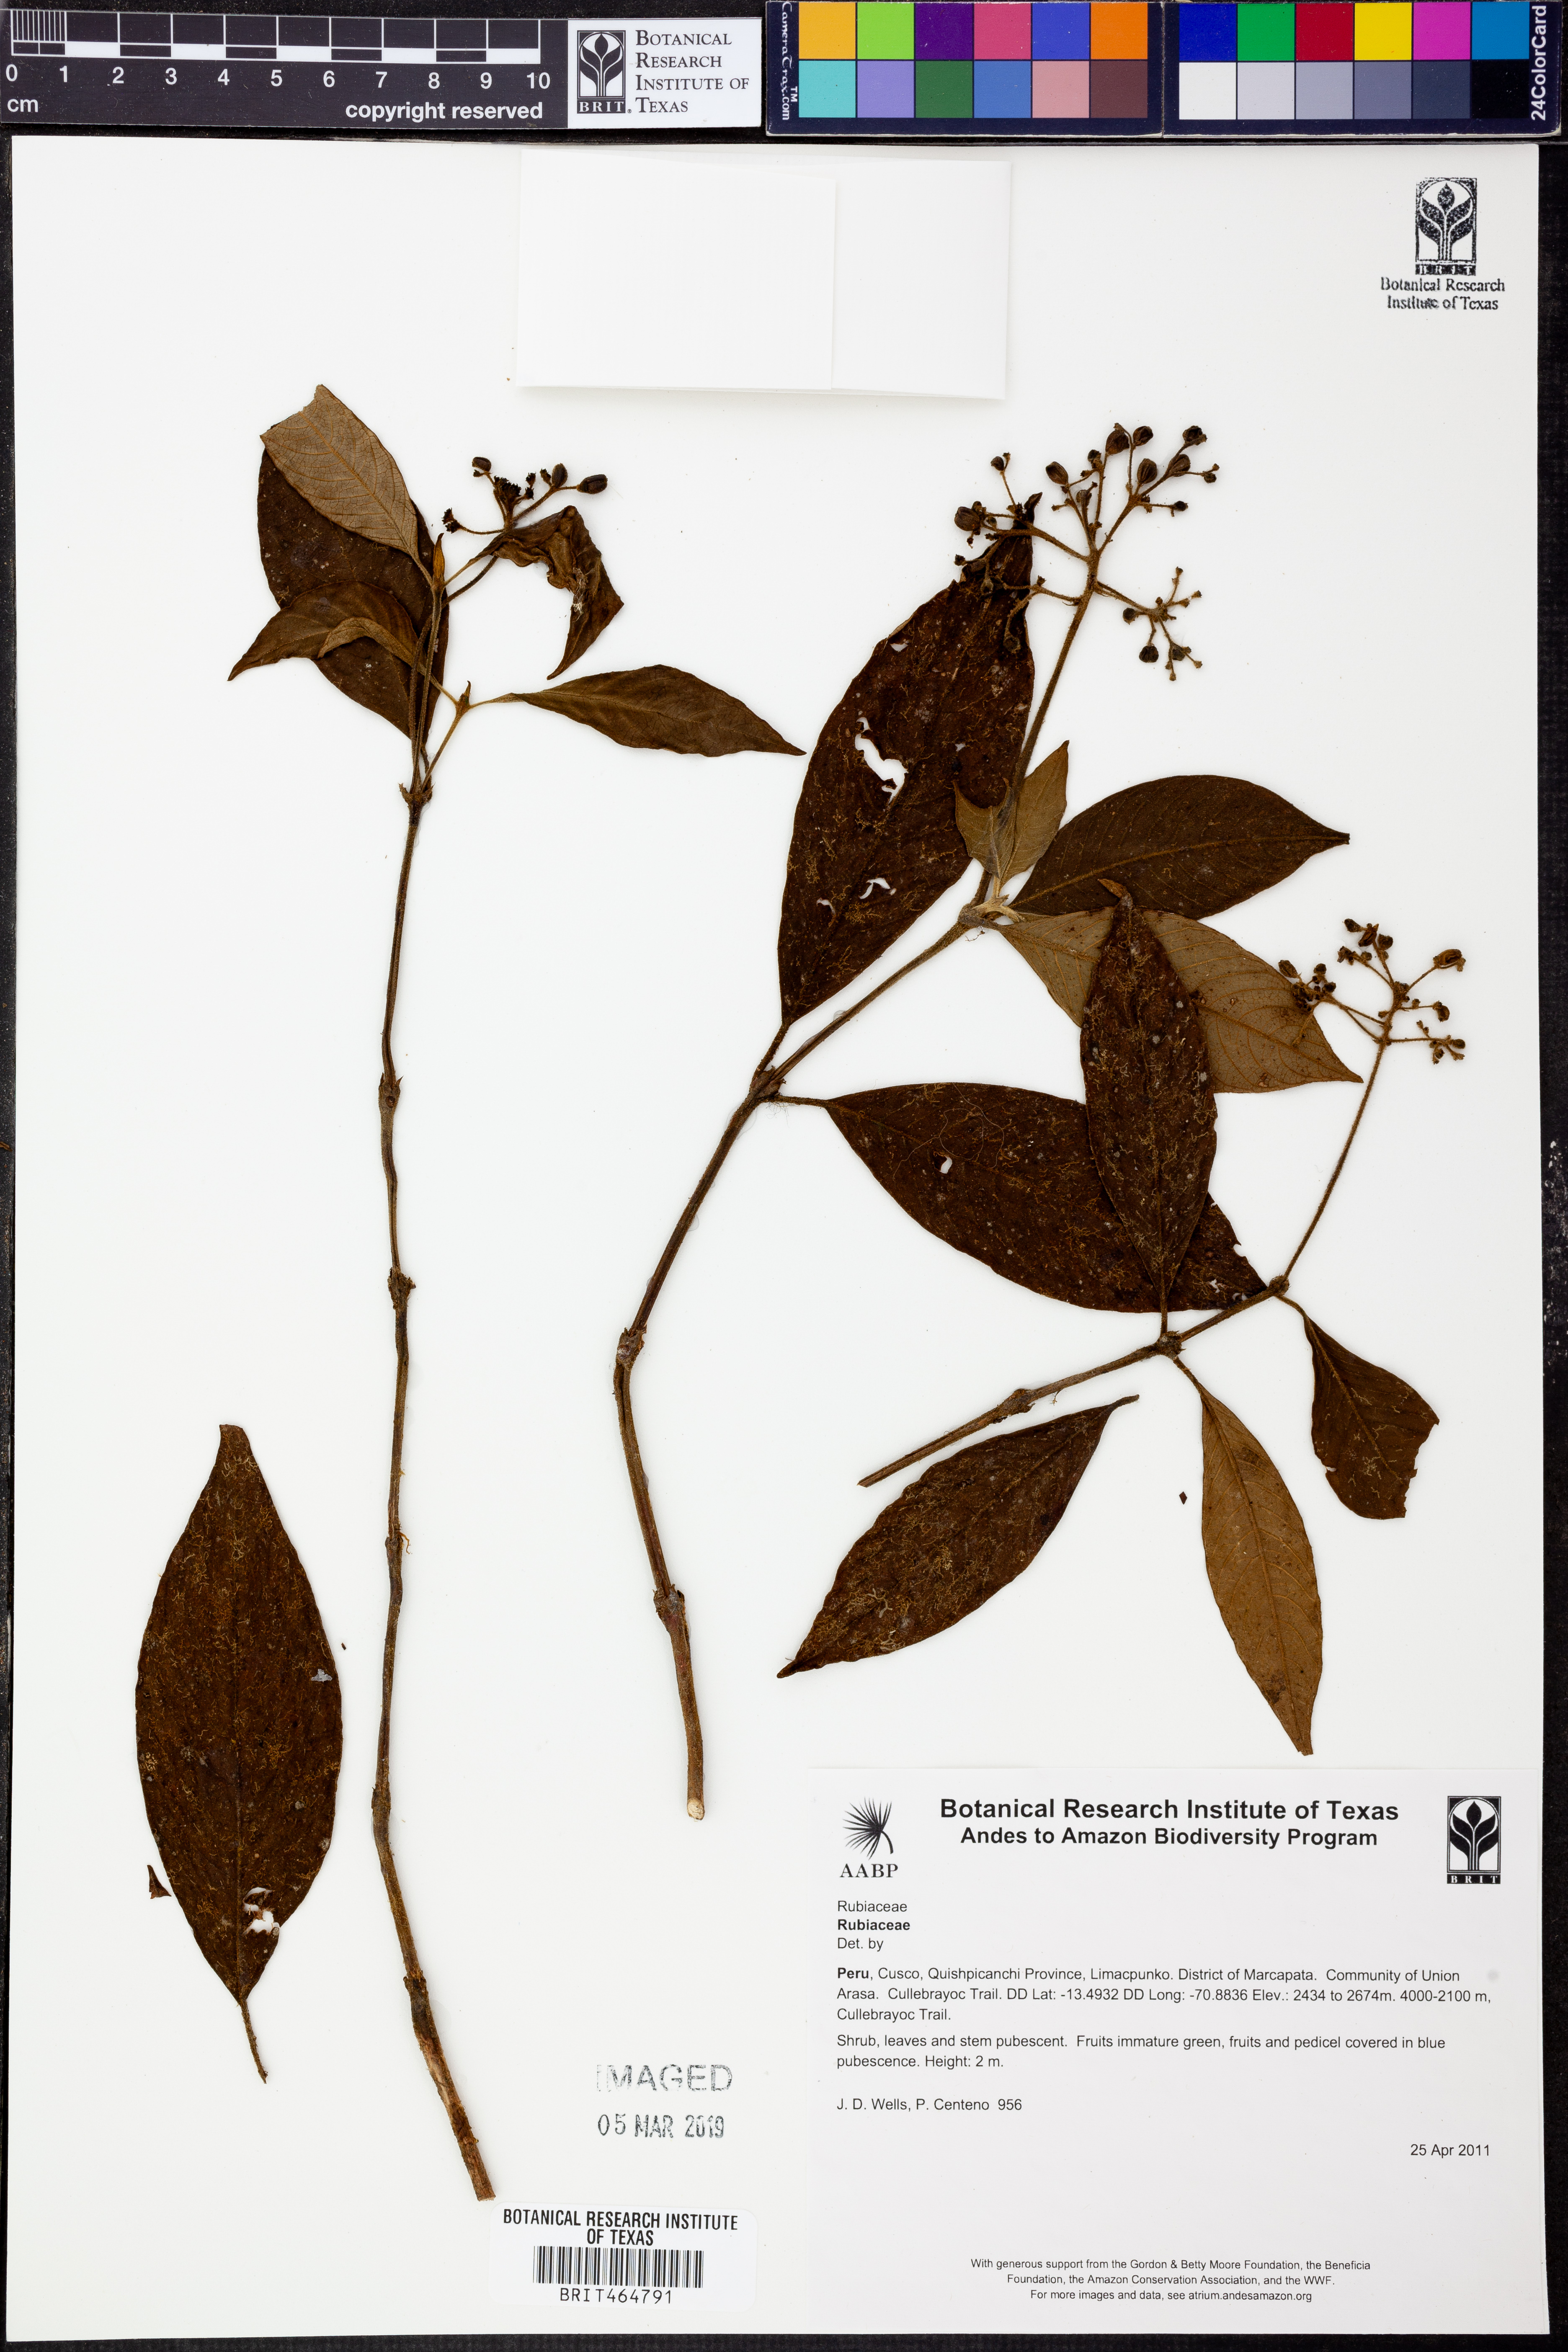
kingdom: Plantae
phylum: Tracheophyta
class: Magnoliopsida
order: Gentianales
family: Rubiaceae
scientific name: Rubiaceae
